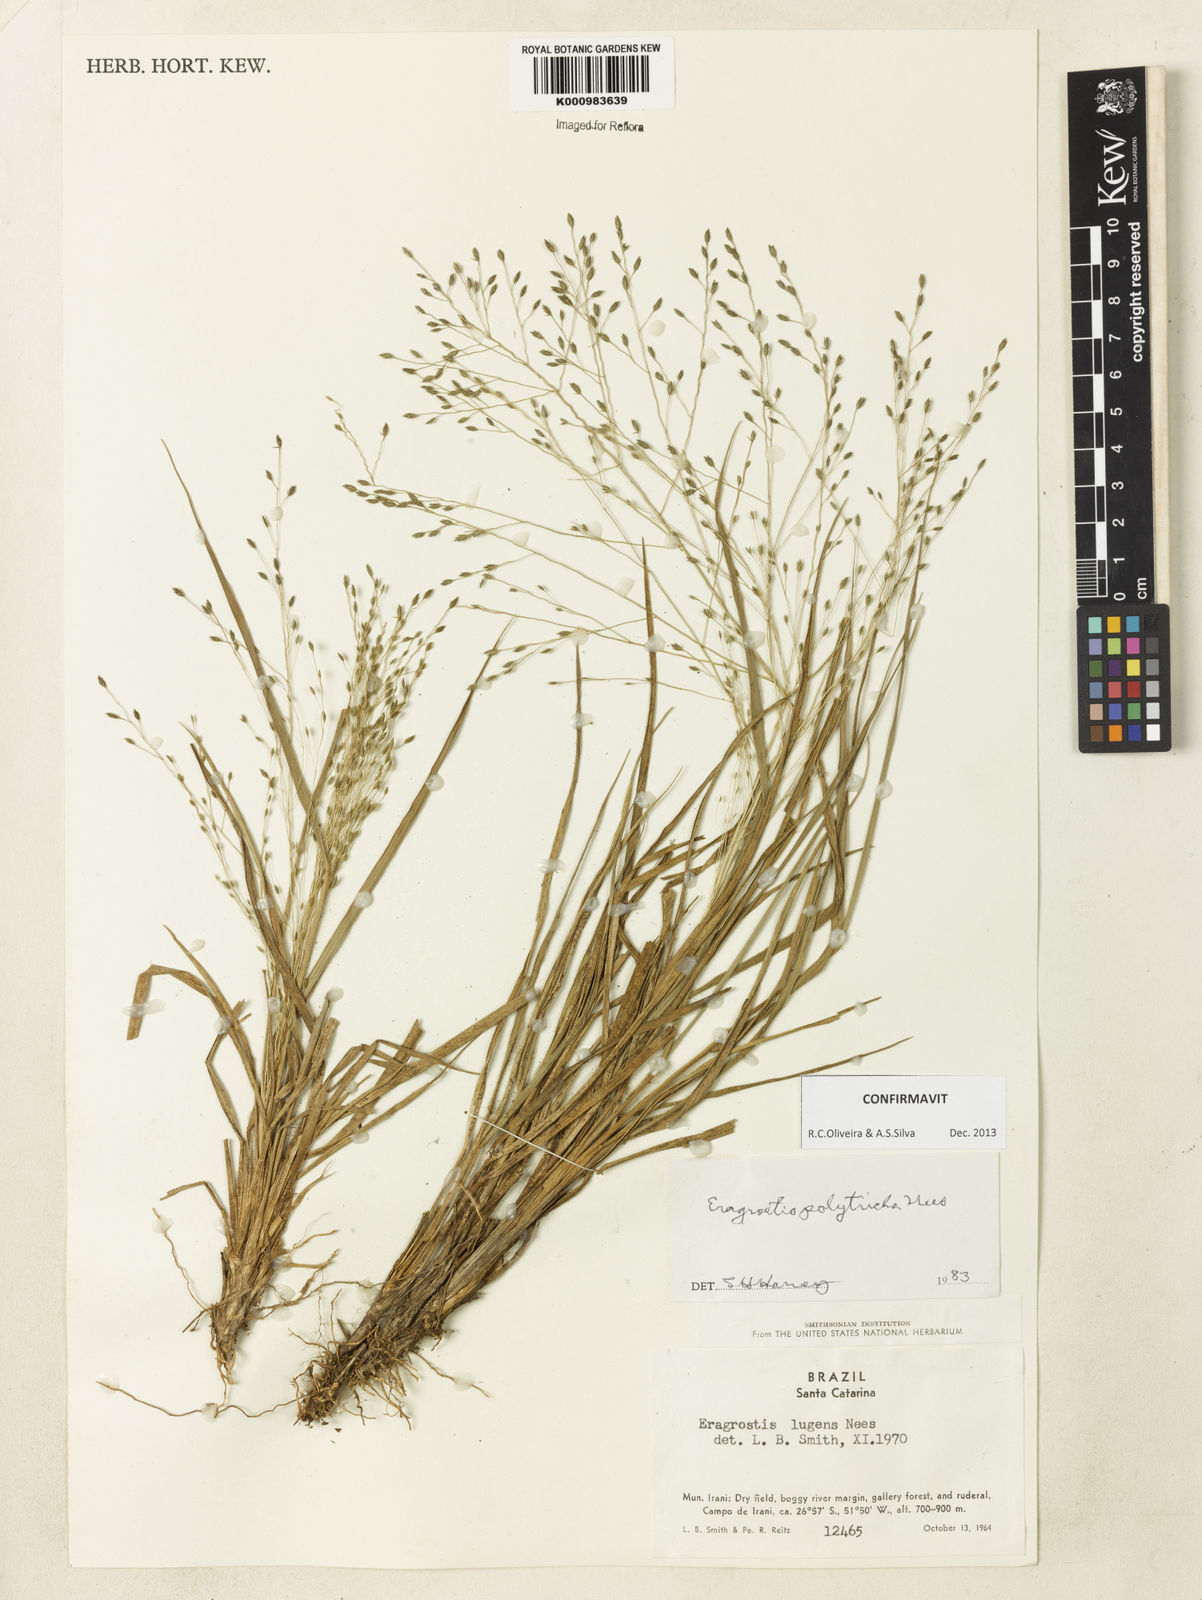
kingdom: Plantae
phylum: Tracheophyta
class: Liliopsida
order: Poales
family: Poaceae
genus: Eragrostis
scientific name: Eragrostis polytricha
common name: Hairy-sheath love grass
